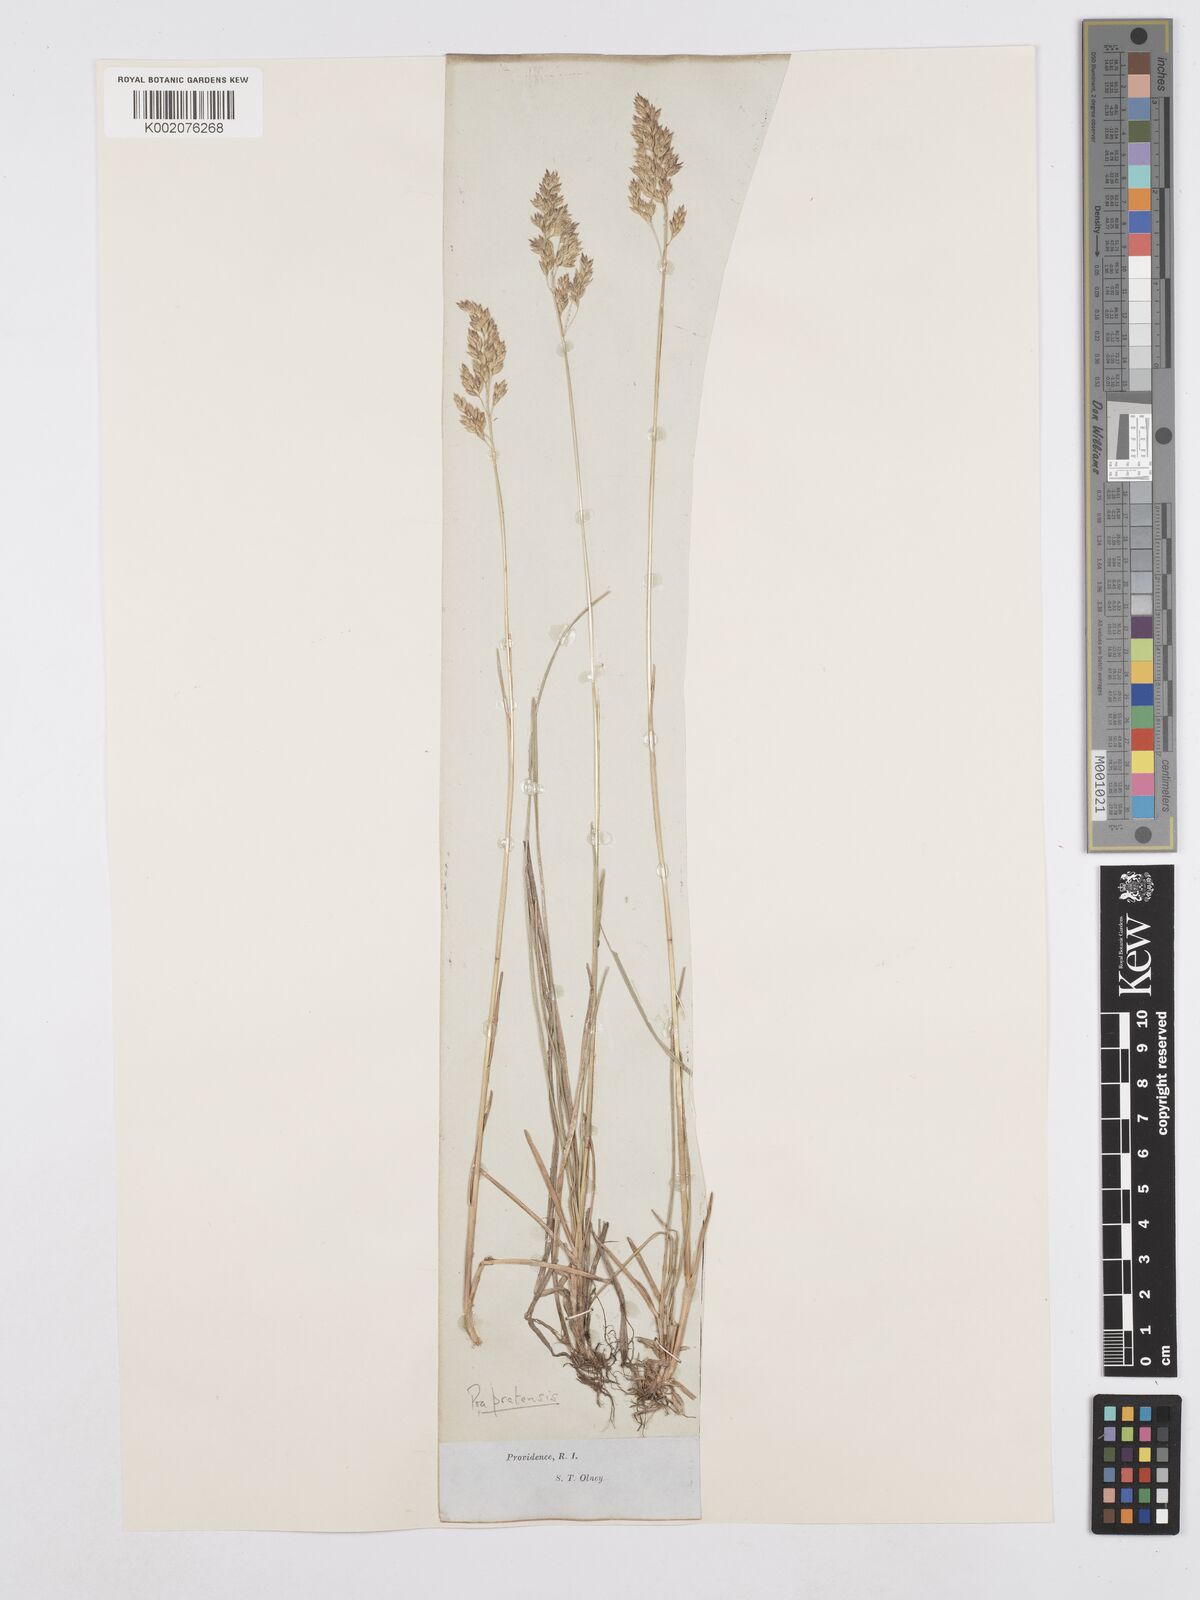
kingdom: Plantae
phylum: Tracheophyta
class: Liliopsida
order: Poales
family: Poaceae
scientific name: Poaceae
